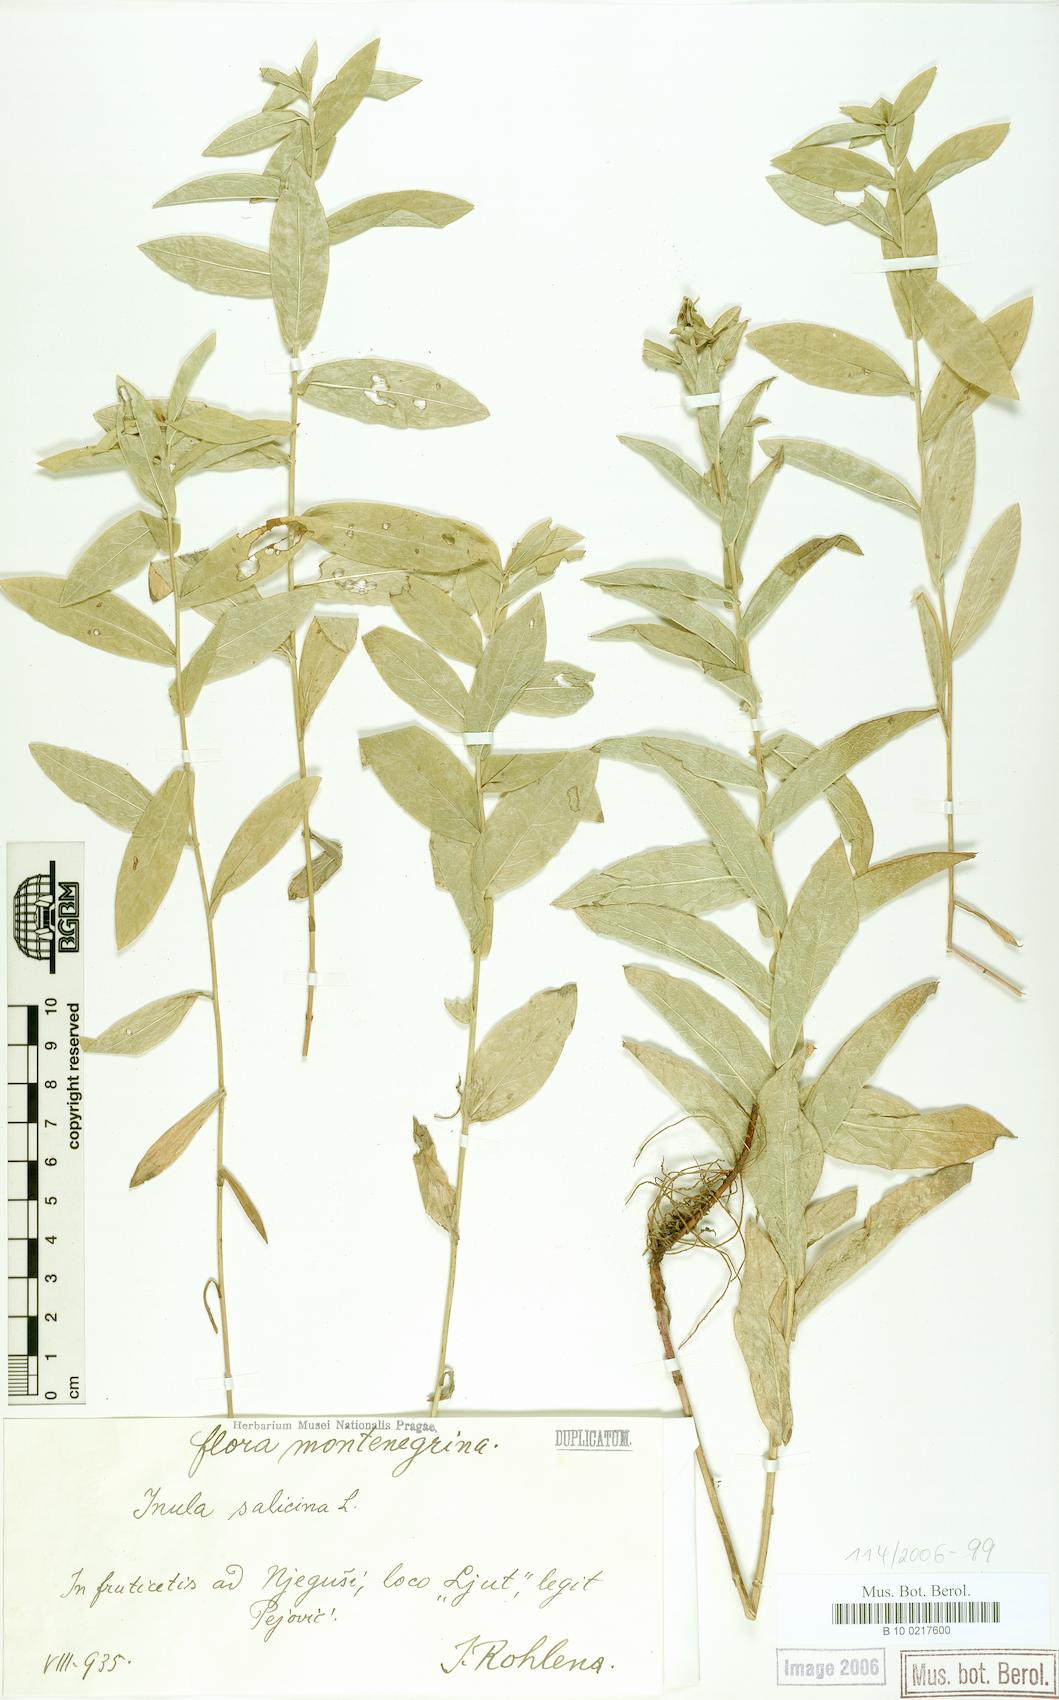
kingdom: Plantae
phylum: Tracheophyta
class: Magnoliopsida
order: Asterales
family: Asteraceae
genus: Pentanema
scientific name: Pentanema salicinum
